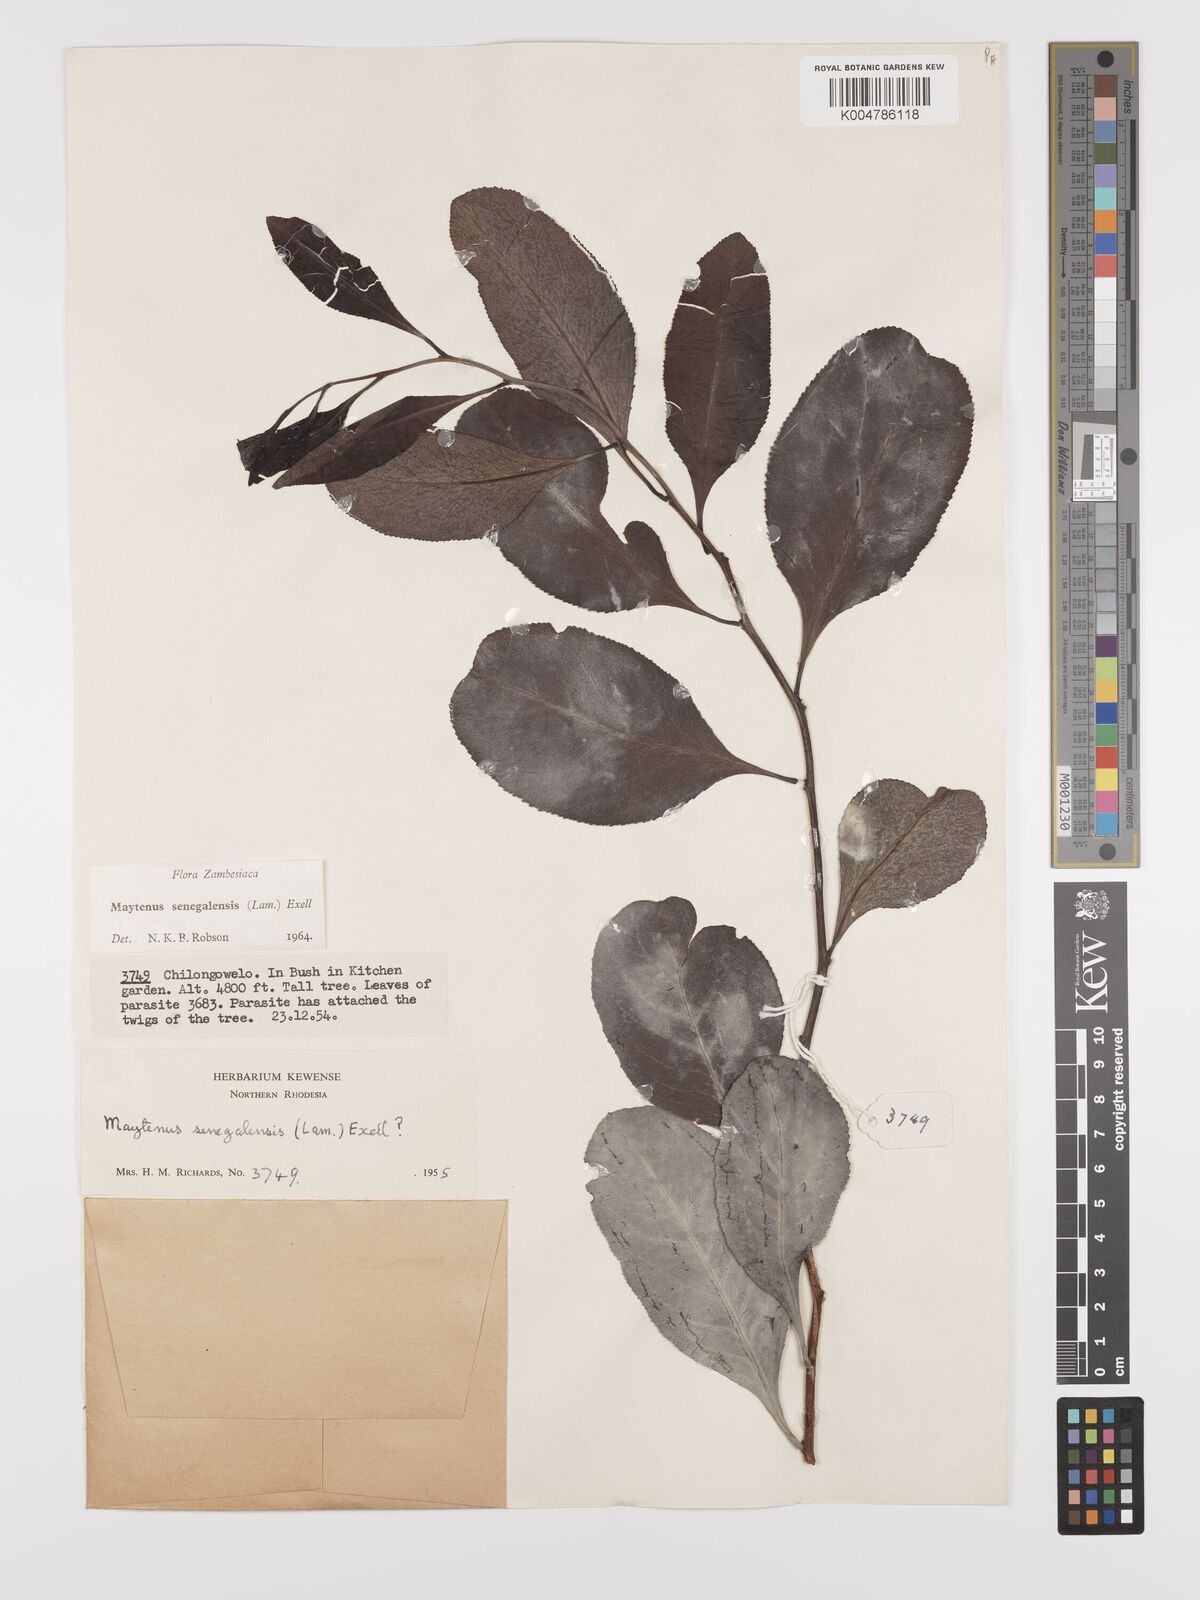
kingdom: Plantae
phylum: Tracheophyta
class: Magnoliopsida
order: Celastrales
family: Celastraceae
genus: Gymnosporia
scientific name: Gymnosporia senegalensis
